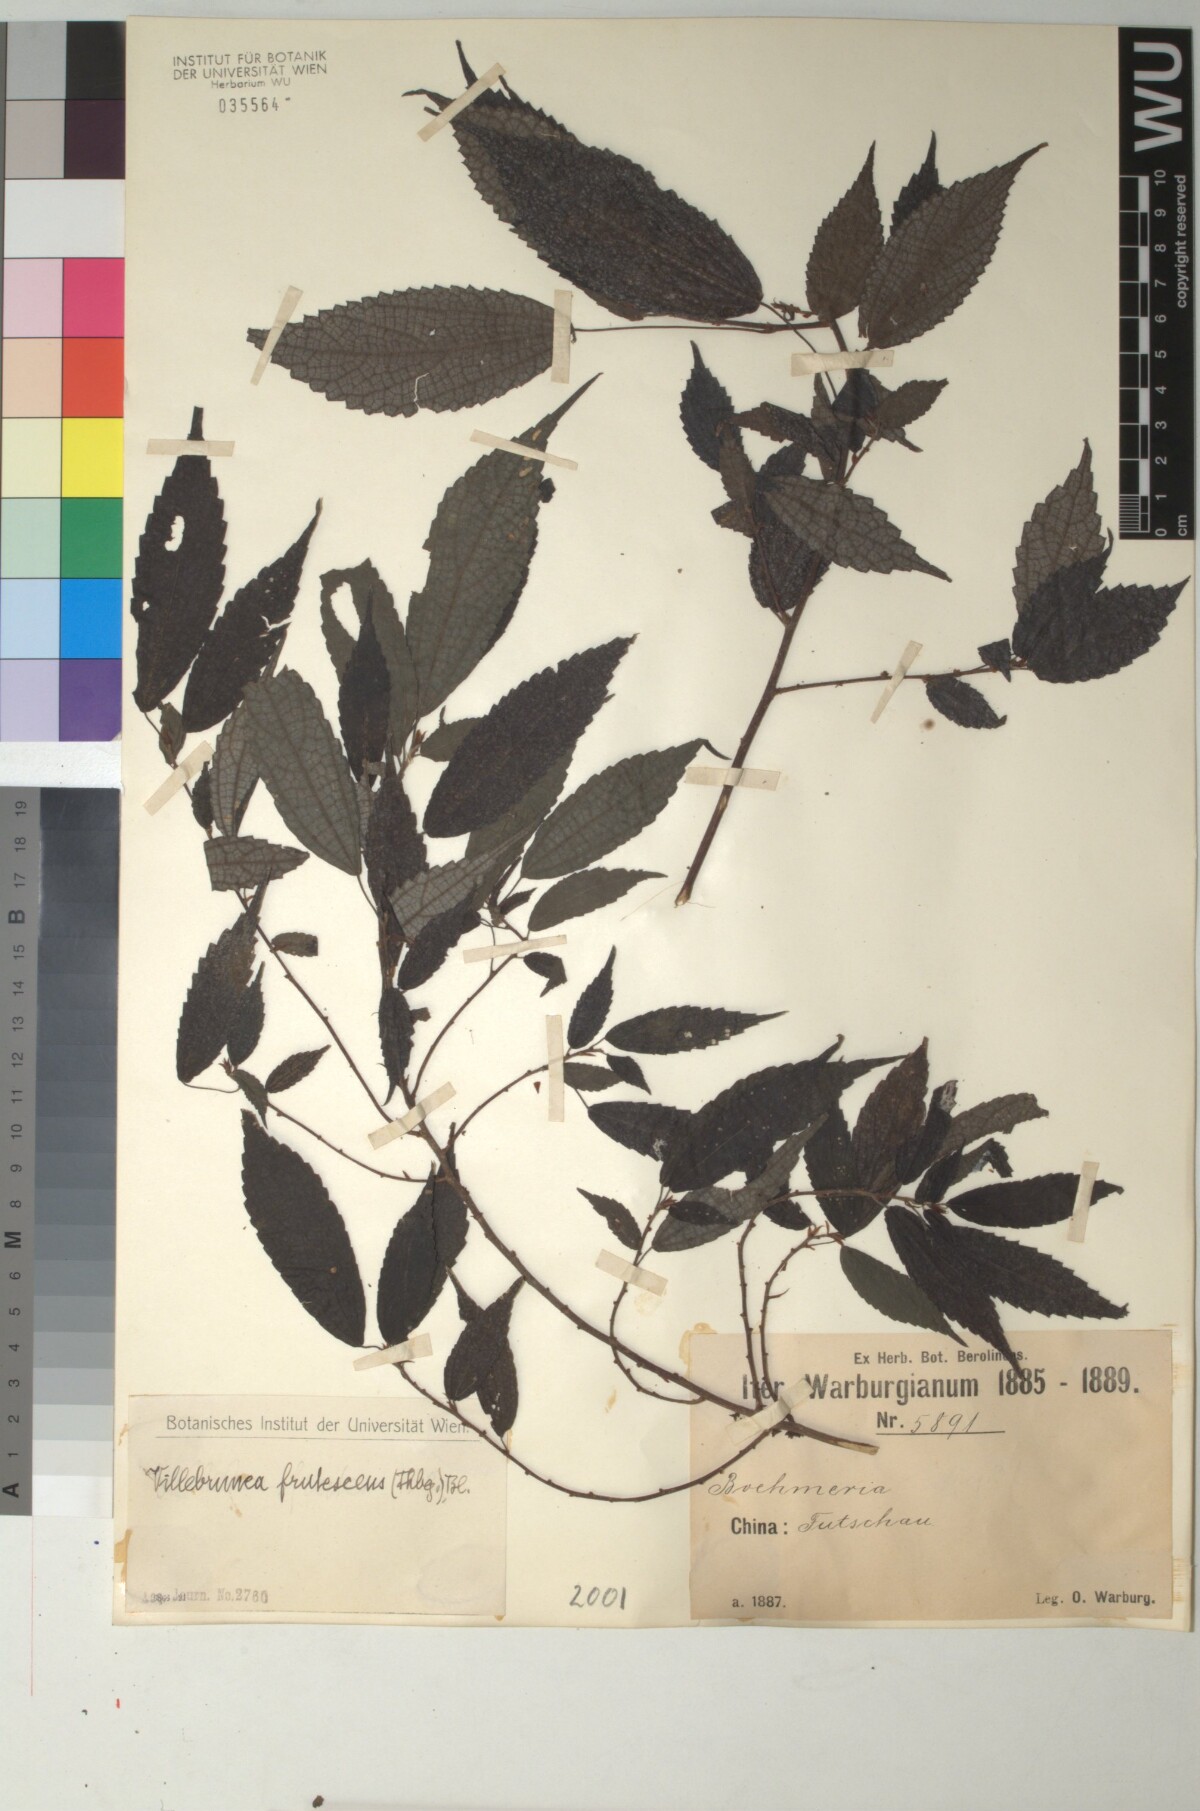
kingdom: Plantae
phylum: Tracheophyta
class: Magnoliopsida
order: Rosales
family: Urticaceae
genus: Oreocnide
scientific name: Oreocnide frutescens
